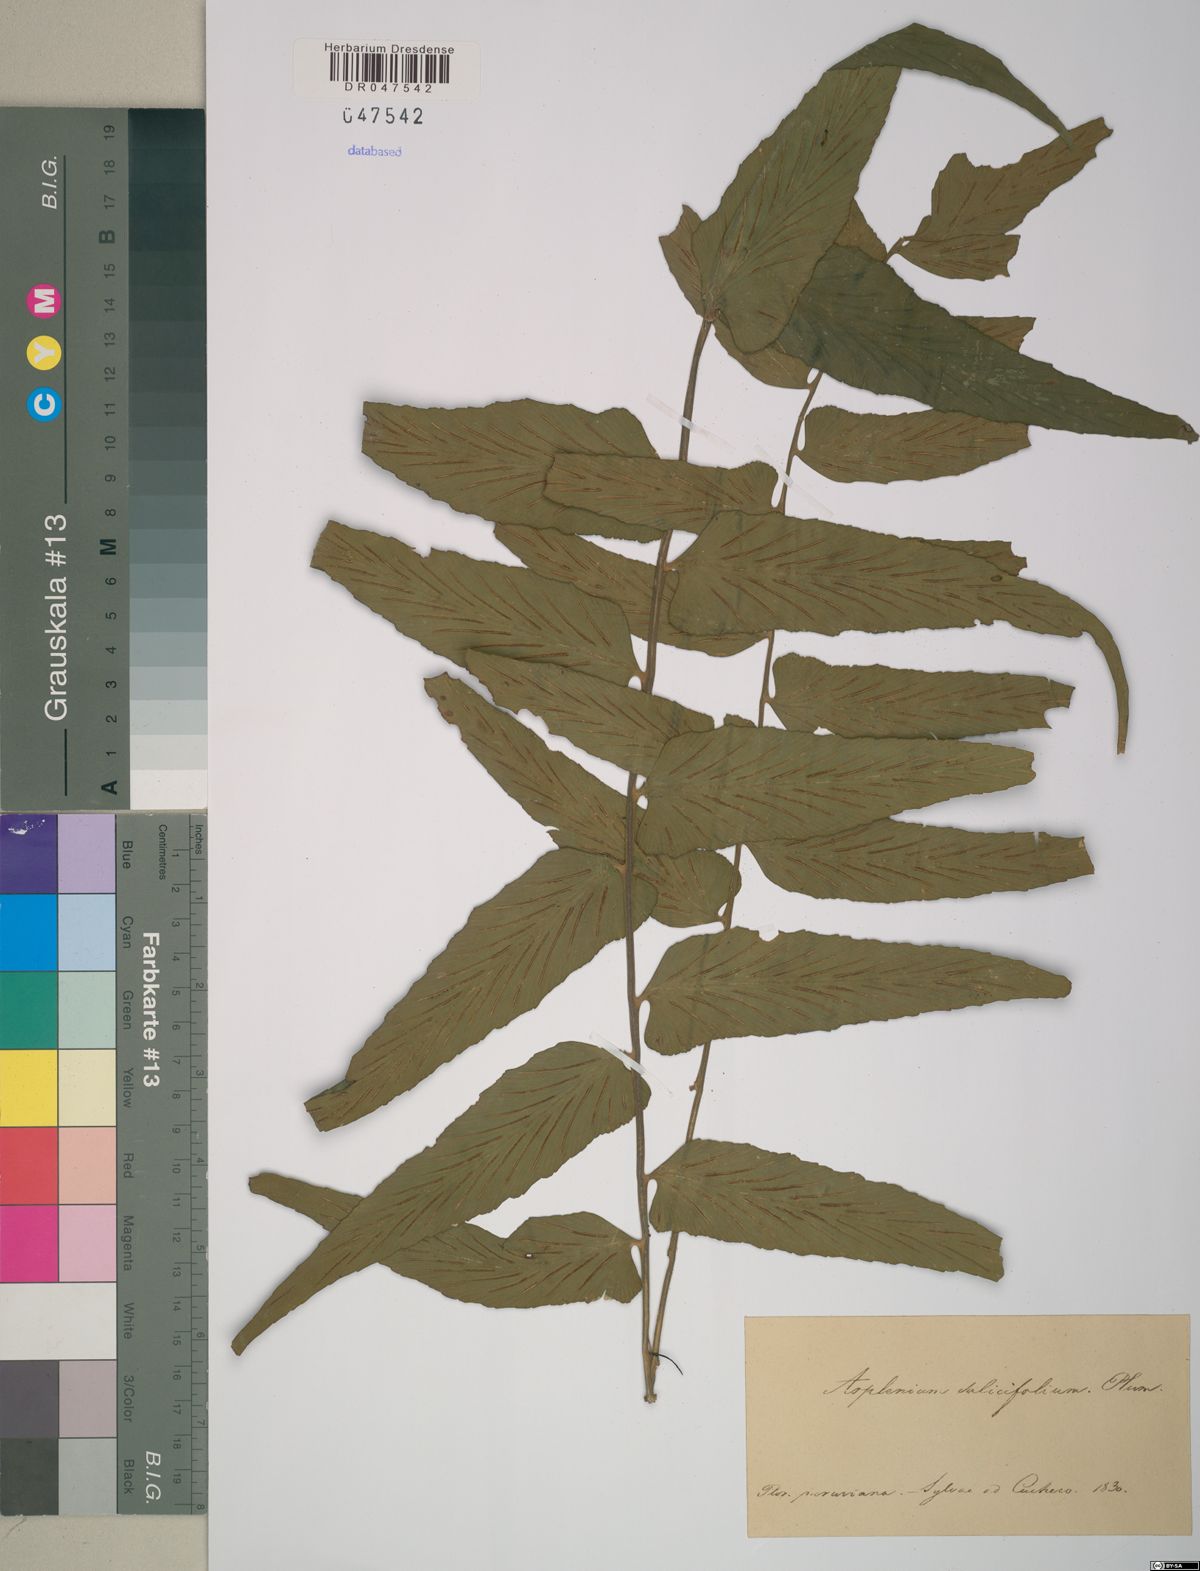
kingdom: Plantae
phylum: Tracheophyta
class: Polypodiopsida
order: Polypodiales
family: Aspleniaceae
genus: Asplenium
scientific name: Asplenium salicifolium
